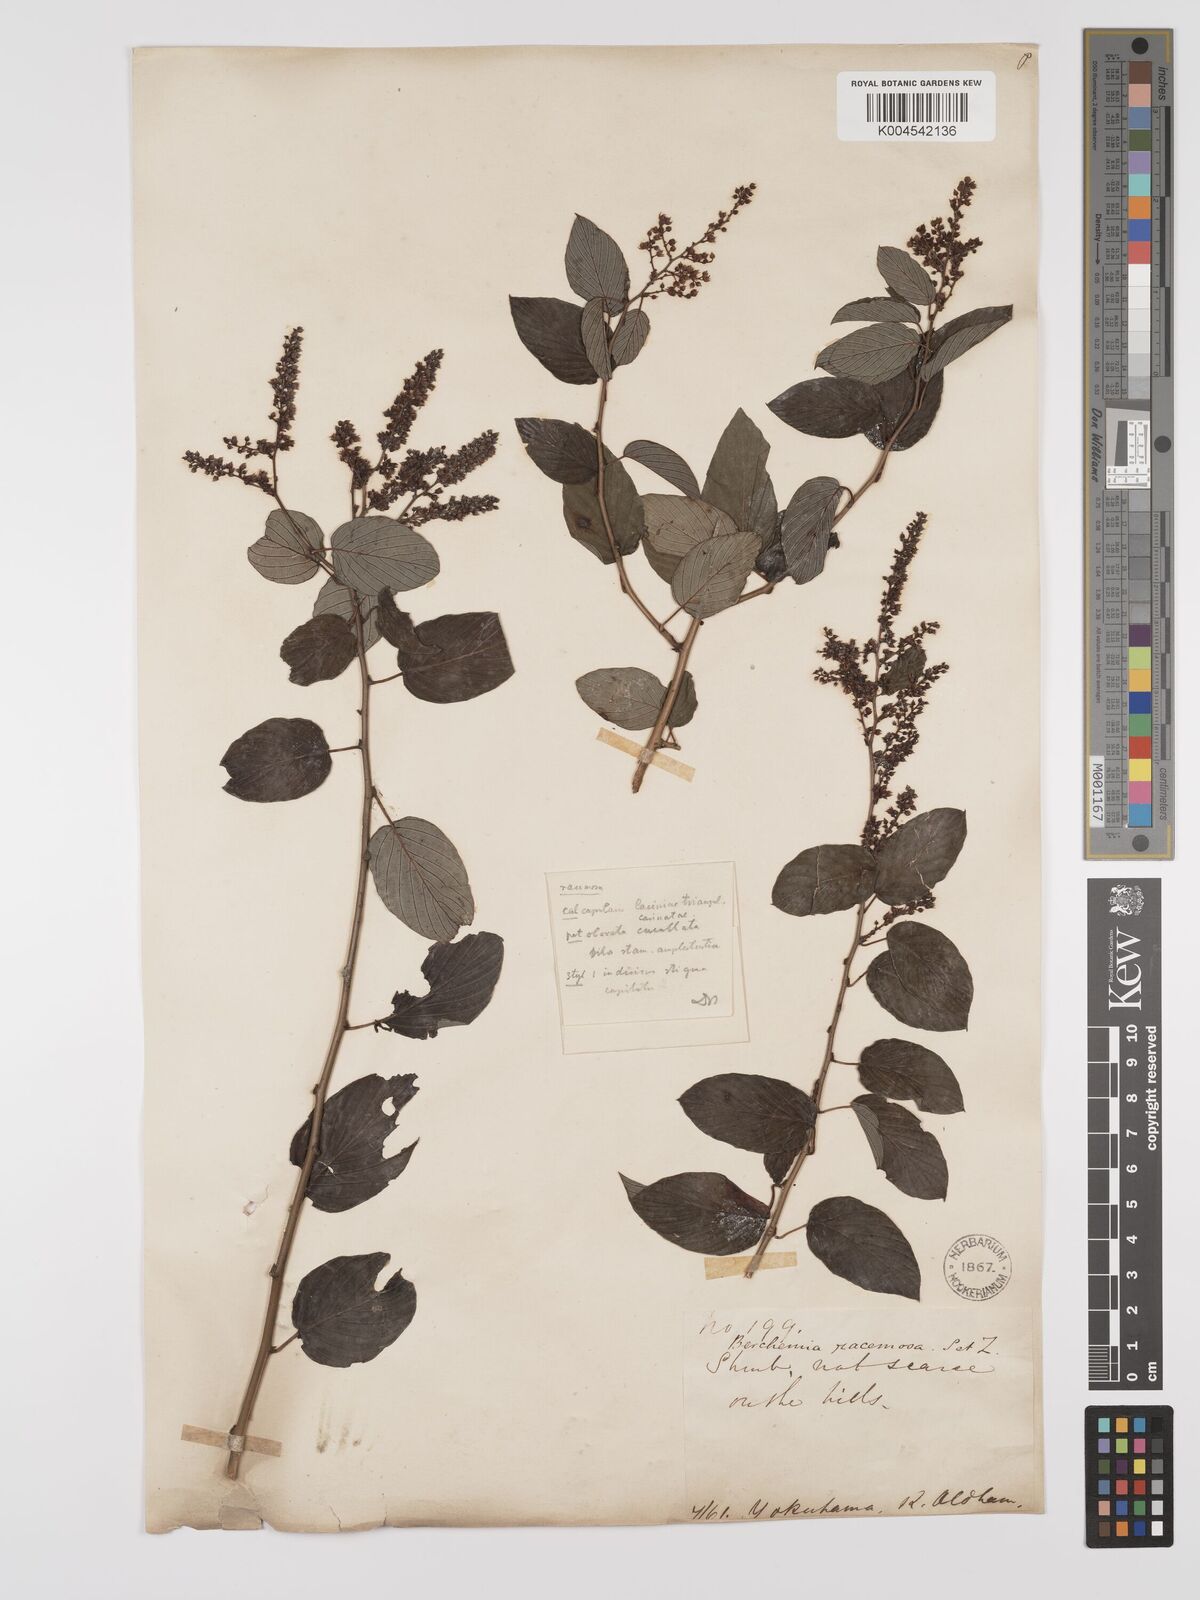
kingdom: Plantae
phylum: Tracheophyta
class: Magnoliopsida
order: Rosales
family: Rhamnaceae
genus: Berchemia
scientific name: Berchemia floribunda
